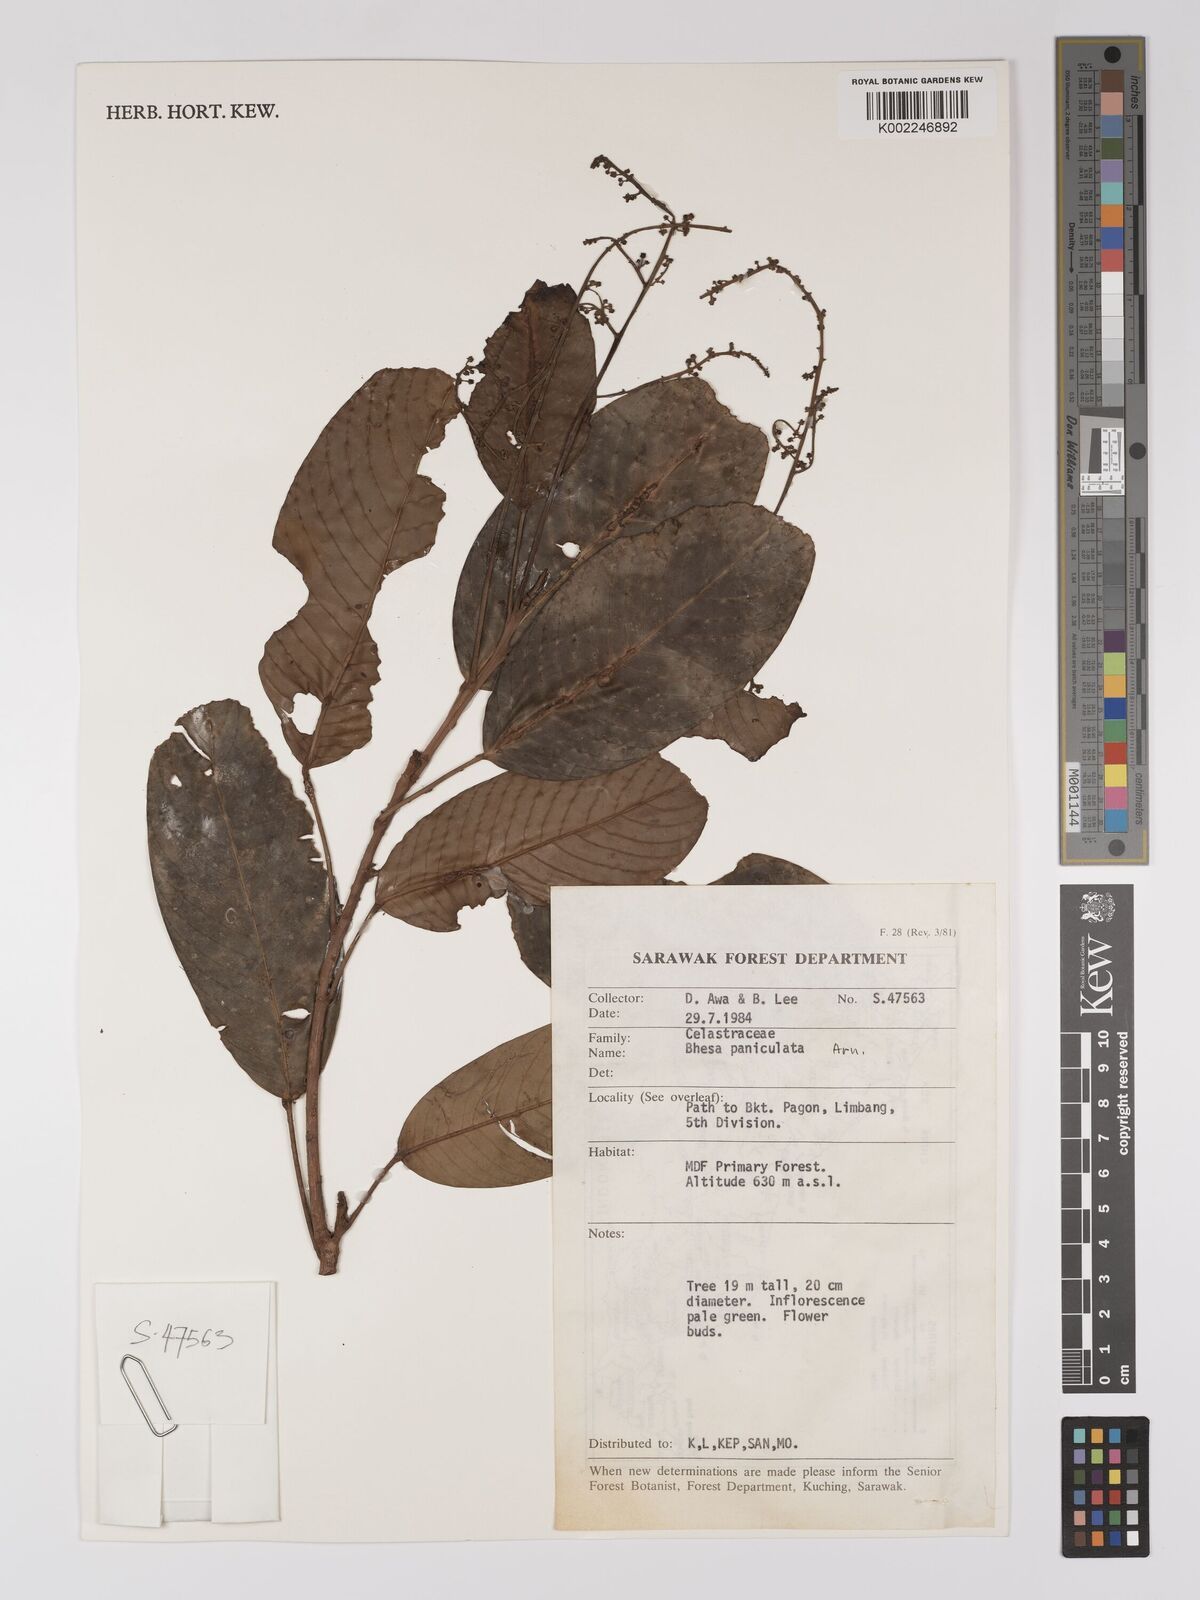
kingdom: Plantae
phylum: Tracheophyta
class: Magnoliopsida
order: Malpighiales
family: Centroplacaceae
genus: Bhesa
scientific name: Bhesa paniculata
